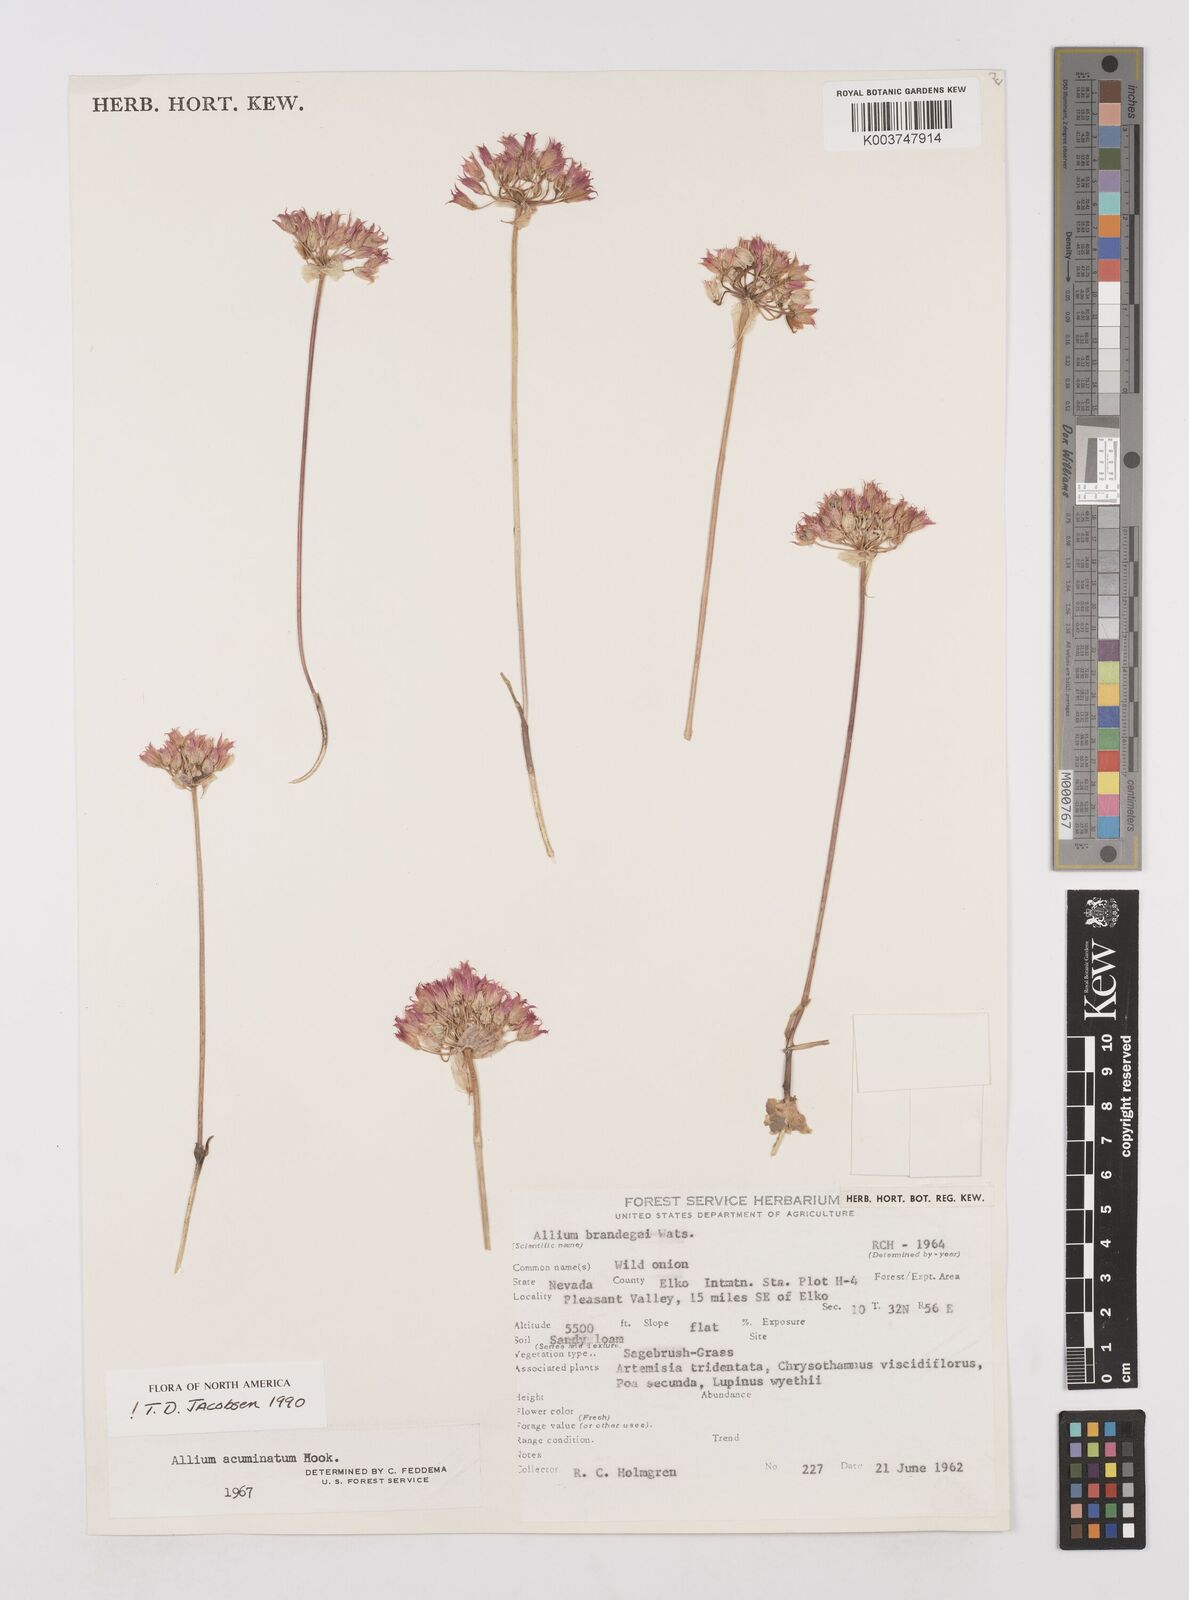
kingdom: Plantae
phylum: Tracheophyta
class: Liliopsida
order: Asparagales
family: Amaryllidaceae
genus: Allium
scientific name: Allium acuminatum
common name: Hooker's onion
